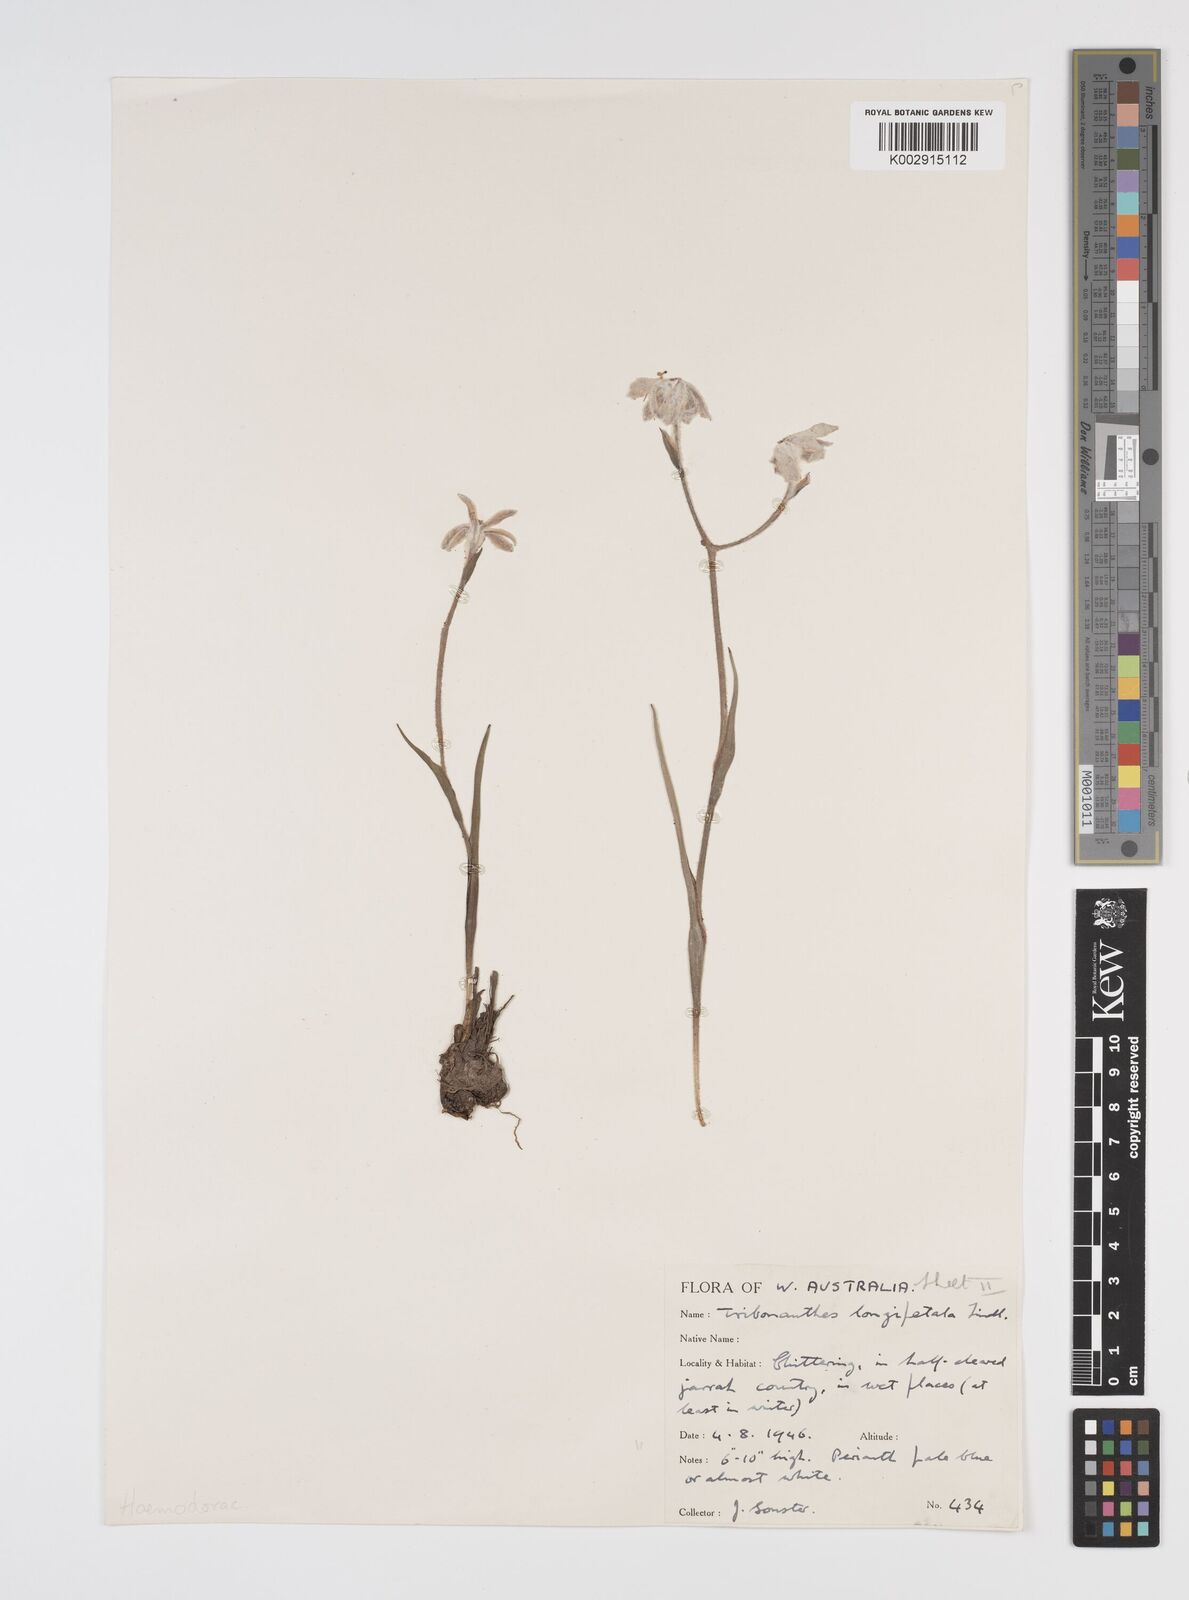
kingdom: Plantae
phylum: Tracheophyta
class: Liliopsida
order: Commelinales
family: Haemodoraceae
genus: Tribonanthes
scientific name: Tribonanthes longipetala
